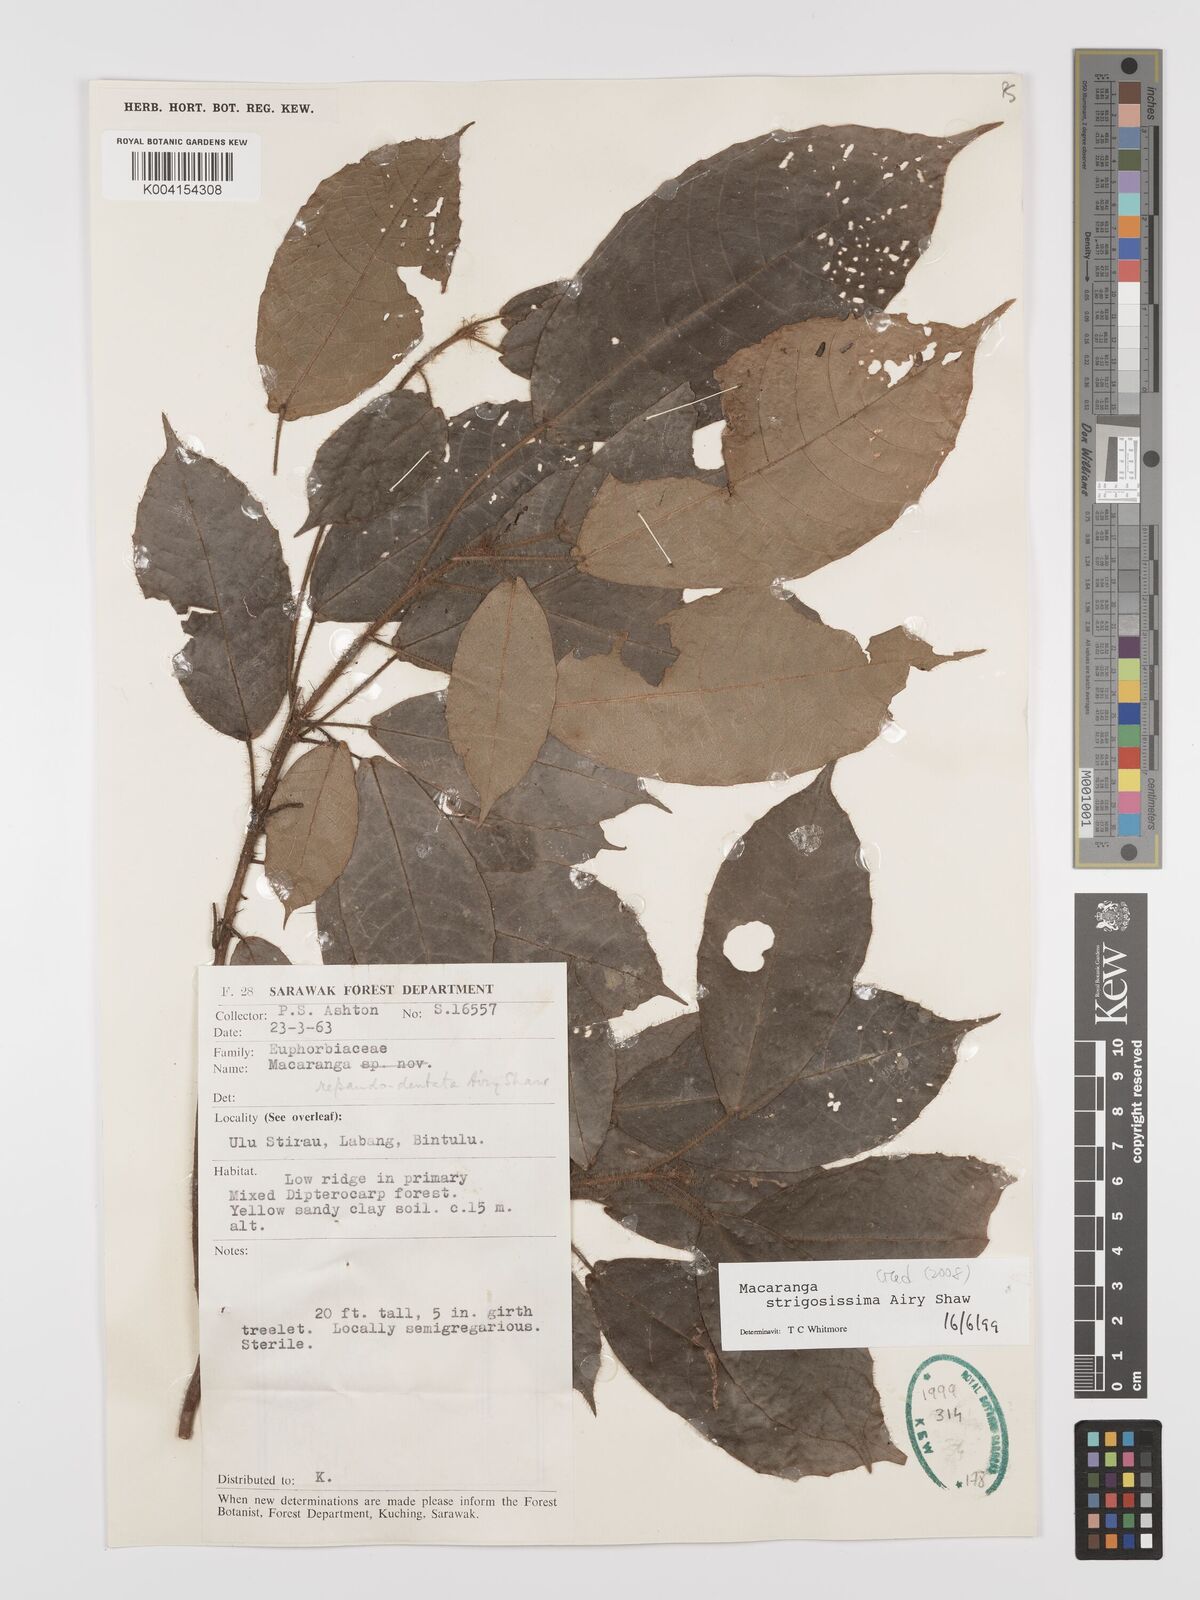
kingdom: Plantae
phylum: Tracheophyta
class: Magnoliopsida
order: Malpighiales
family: Euphorbiaceae
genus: Macaranga
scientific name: Macaranga strigosissima
